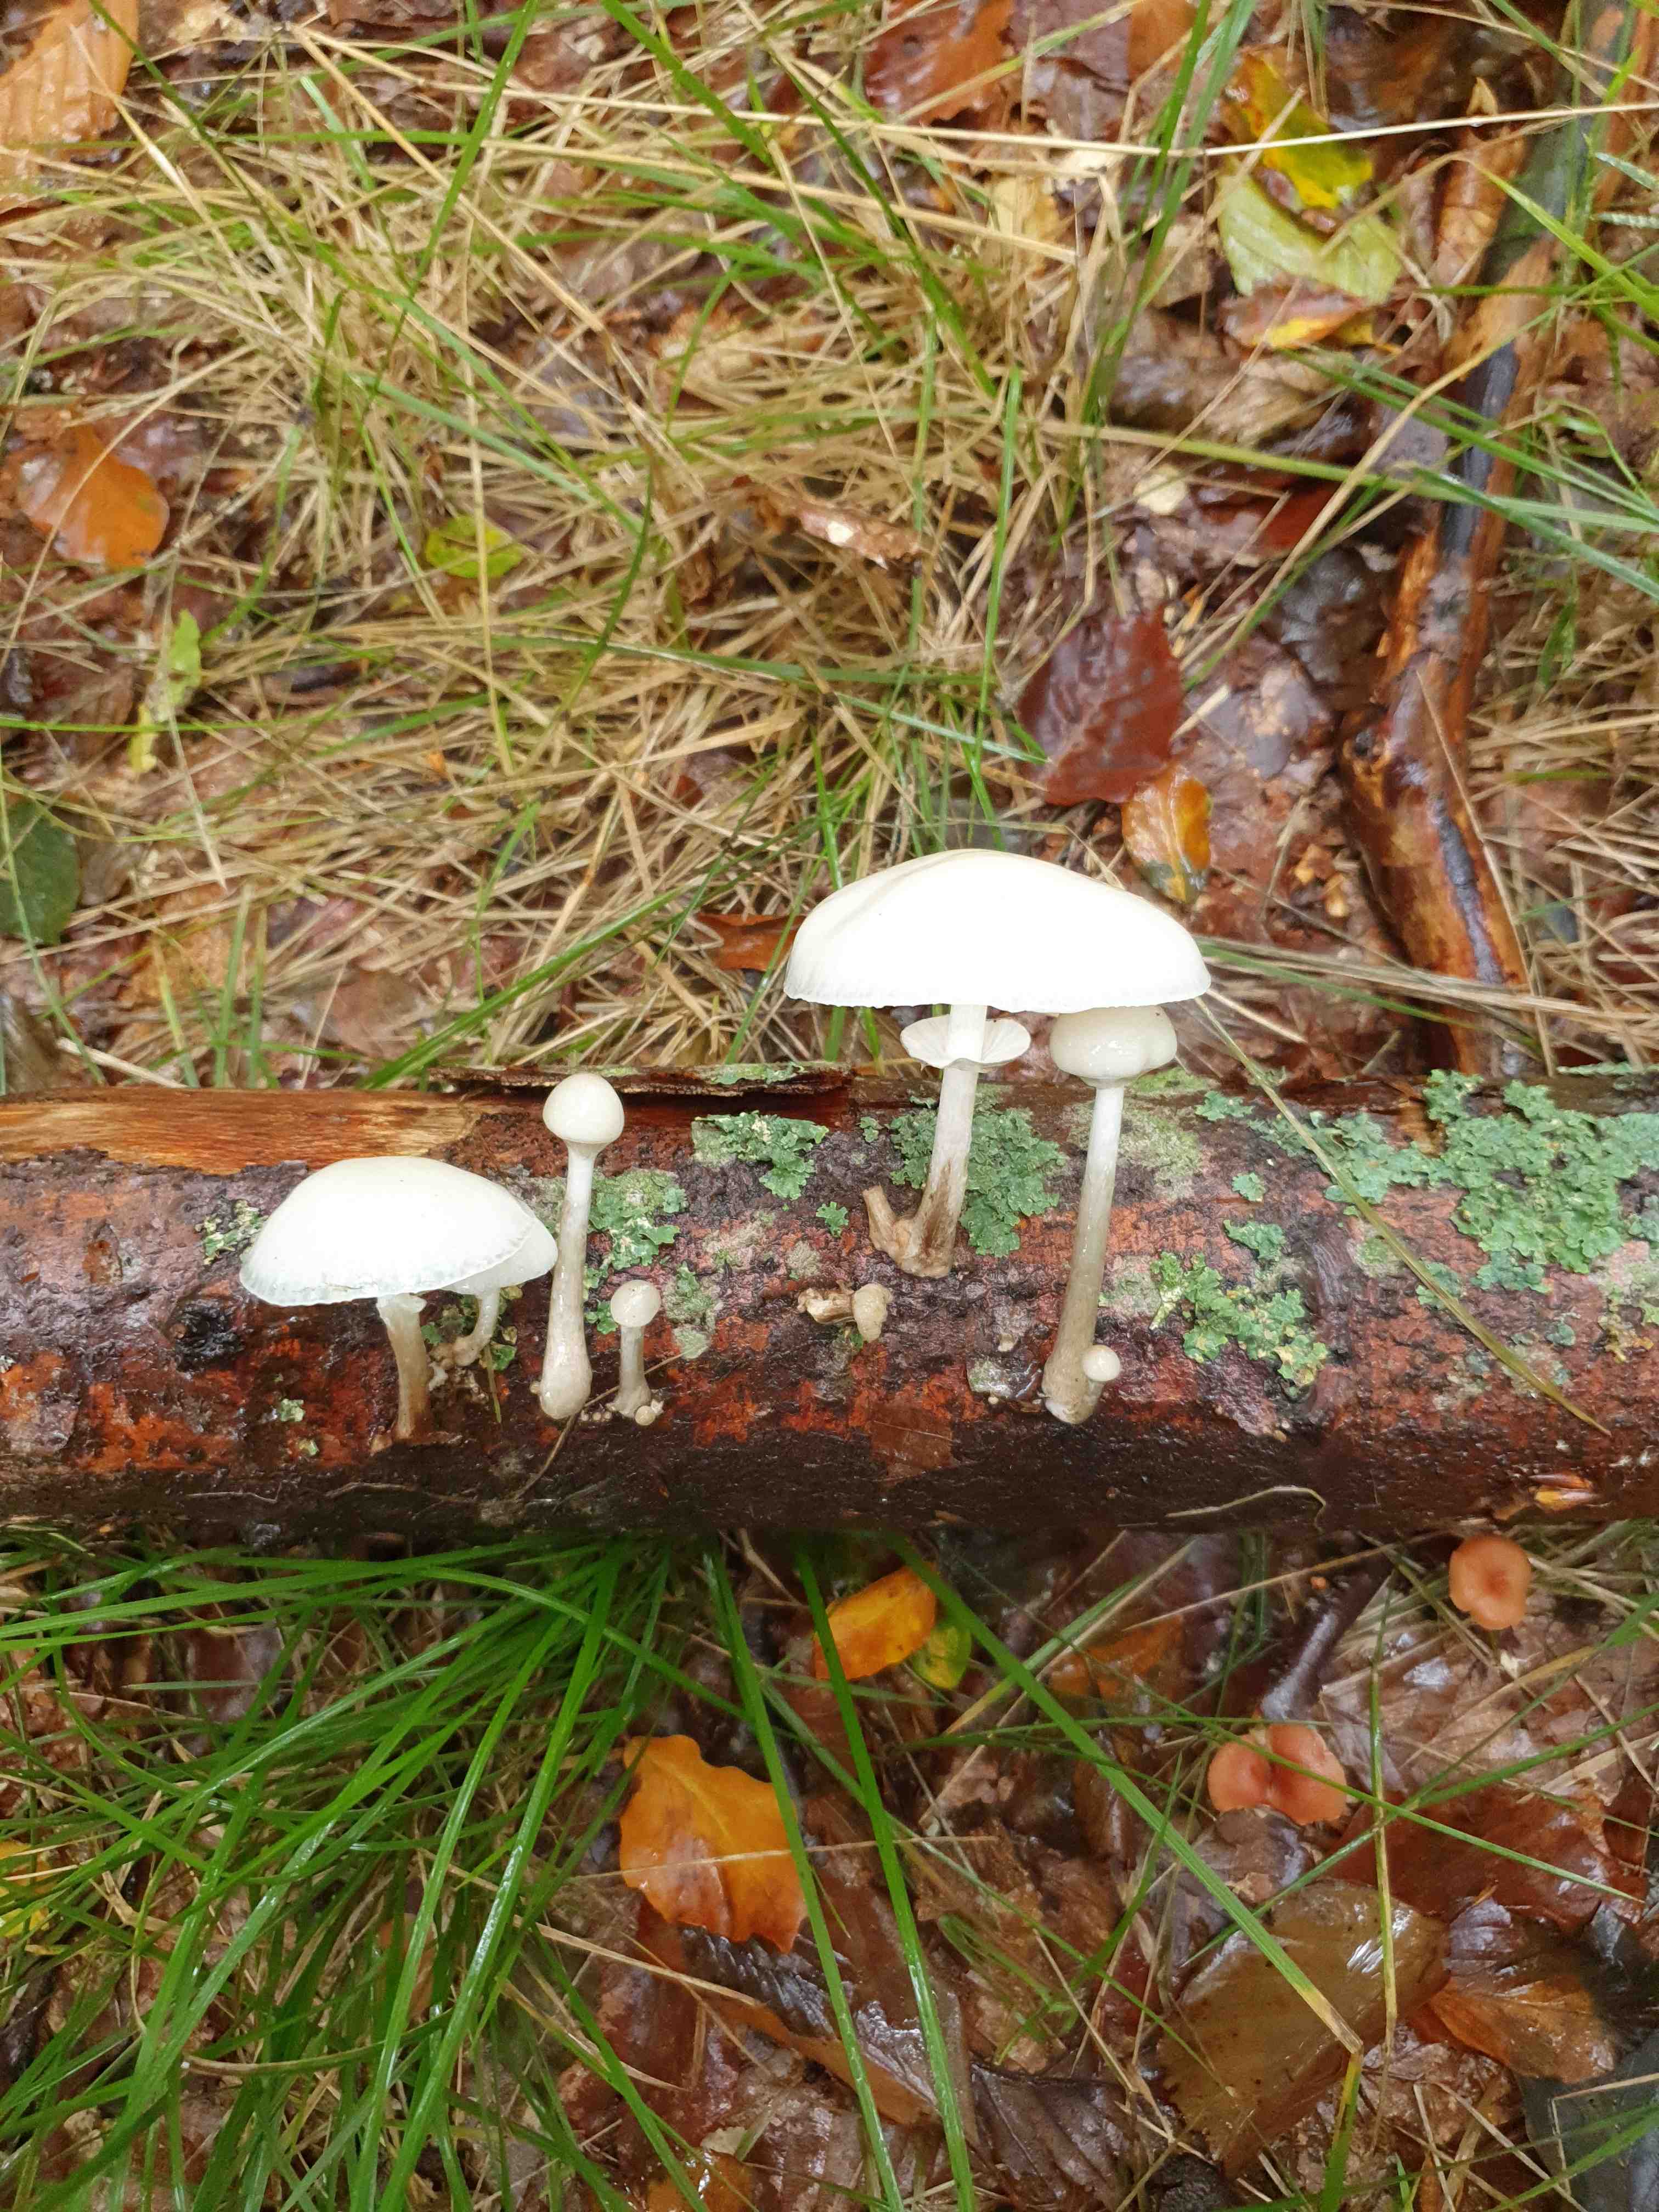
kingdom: Fungi
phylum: Basidiomycota
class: Agaricomycetes
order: Agaricales
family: Physalacriaceae
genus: Mucidula
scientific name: Mucidula mucida
